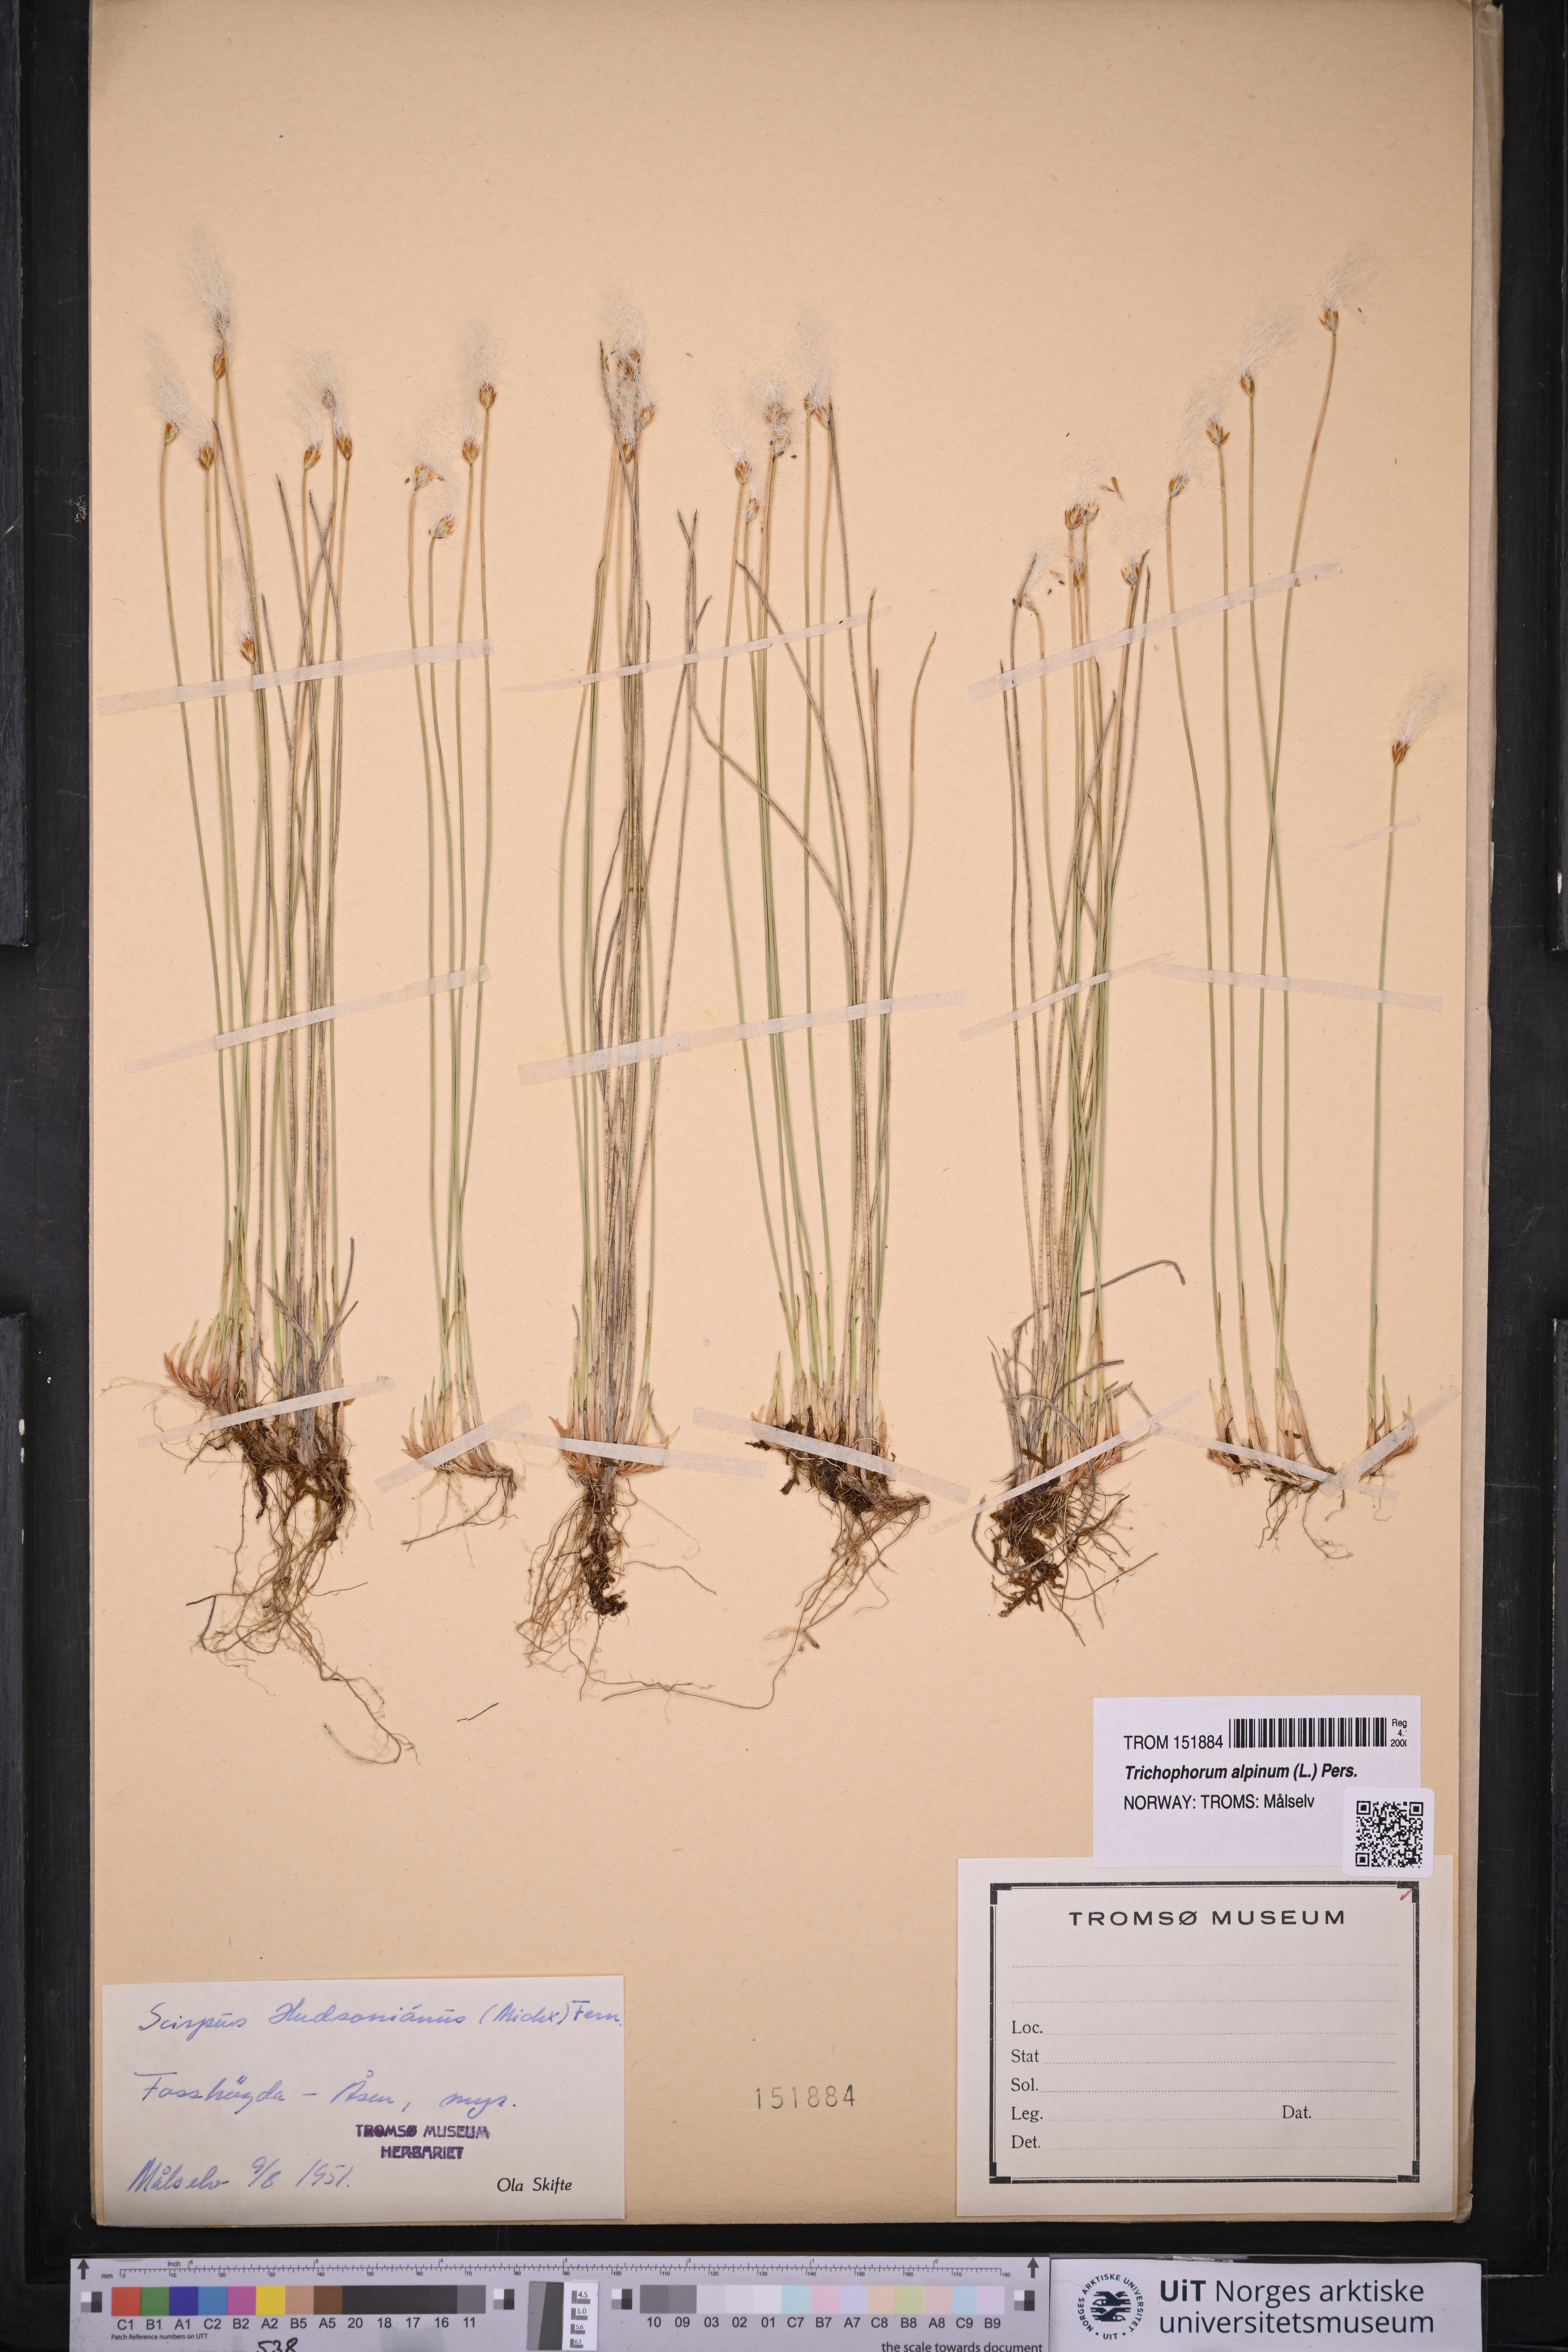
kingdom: Plantae
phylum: Tracheophyta
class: Liliopsida
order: Poales
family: Cyperaceae
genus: Trichophorum
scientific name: Trichophorum alpinum
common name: Alpine bulrush
